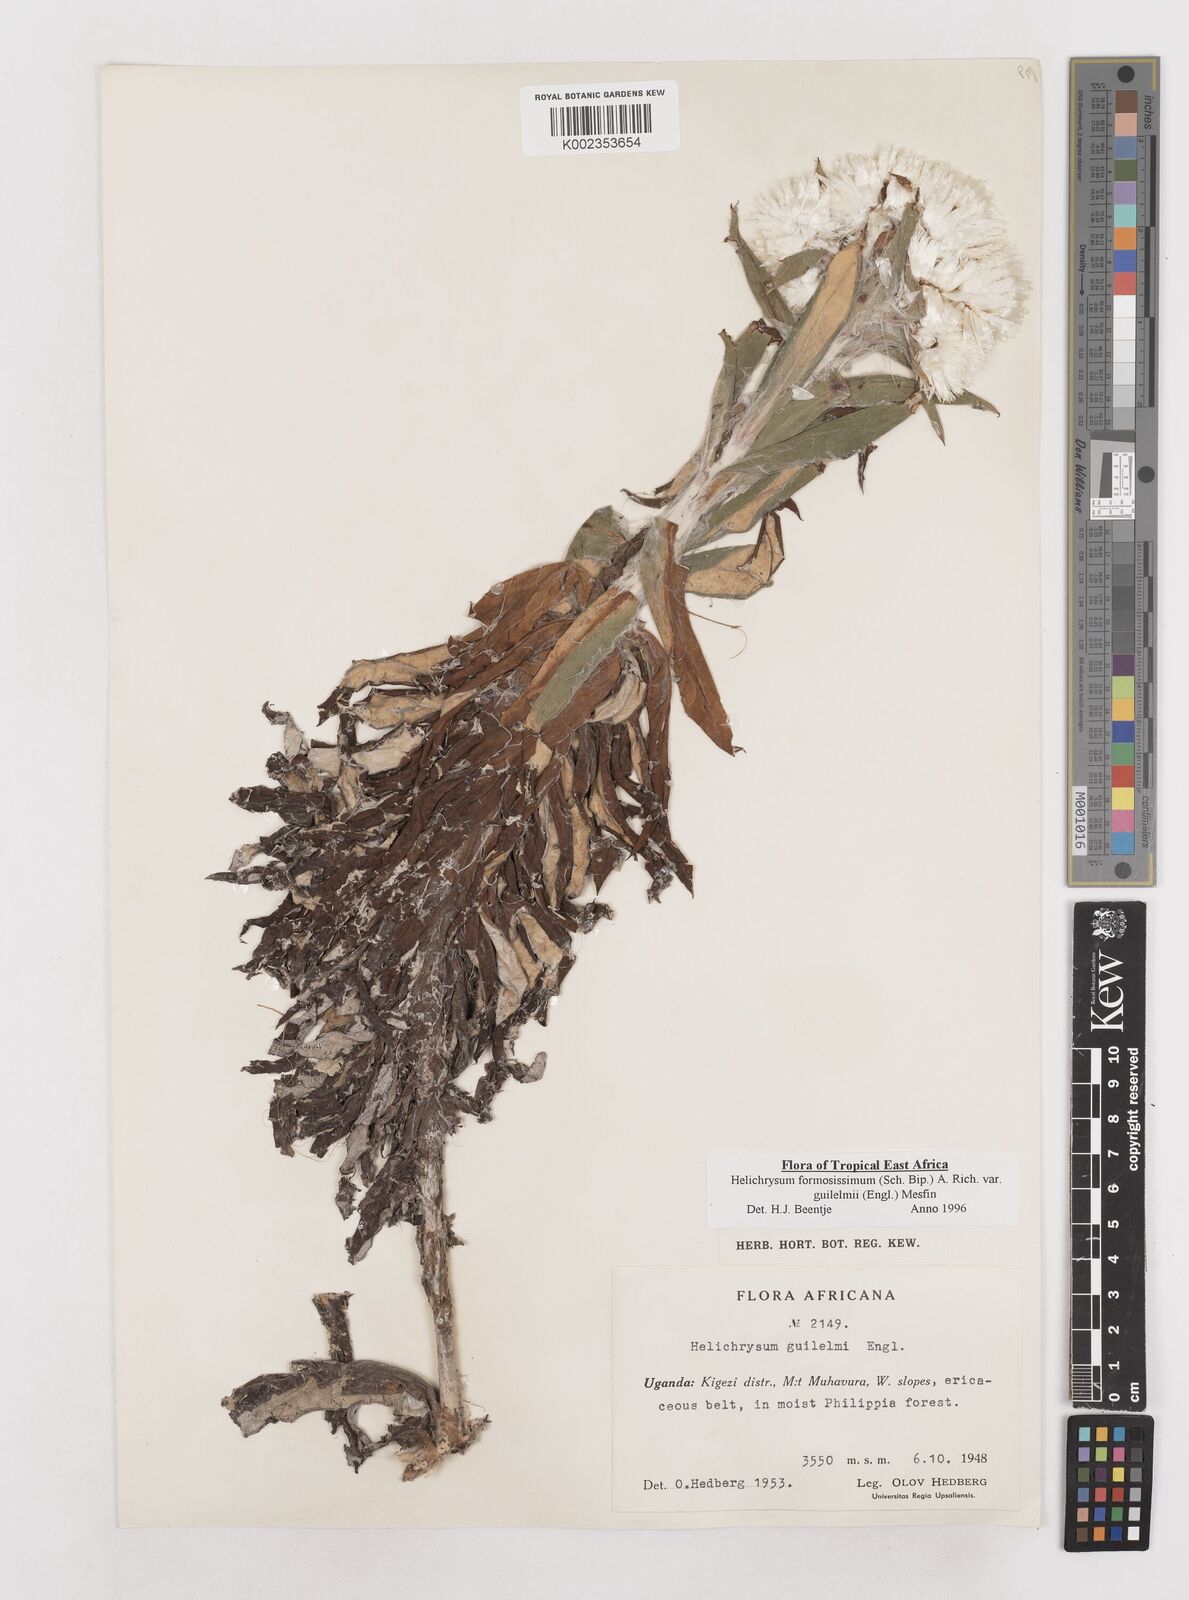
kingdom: Plantae
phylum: Tracheophyta
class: Magnoliopsida
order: Asterales
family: Asteraceae
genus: Helichrysum
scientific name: Helichrysum formosissimum
